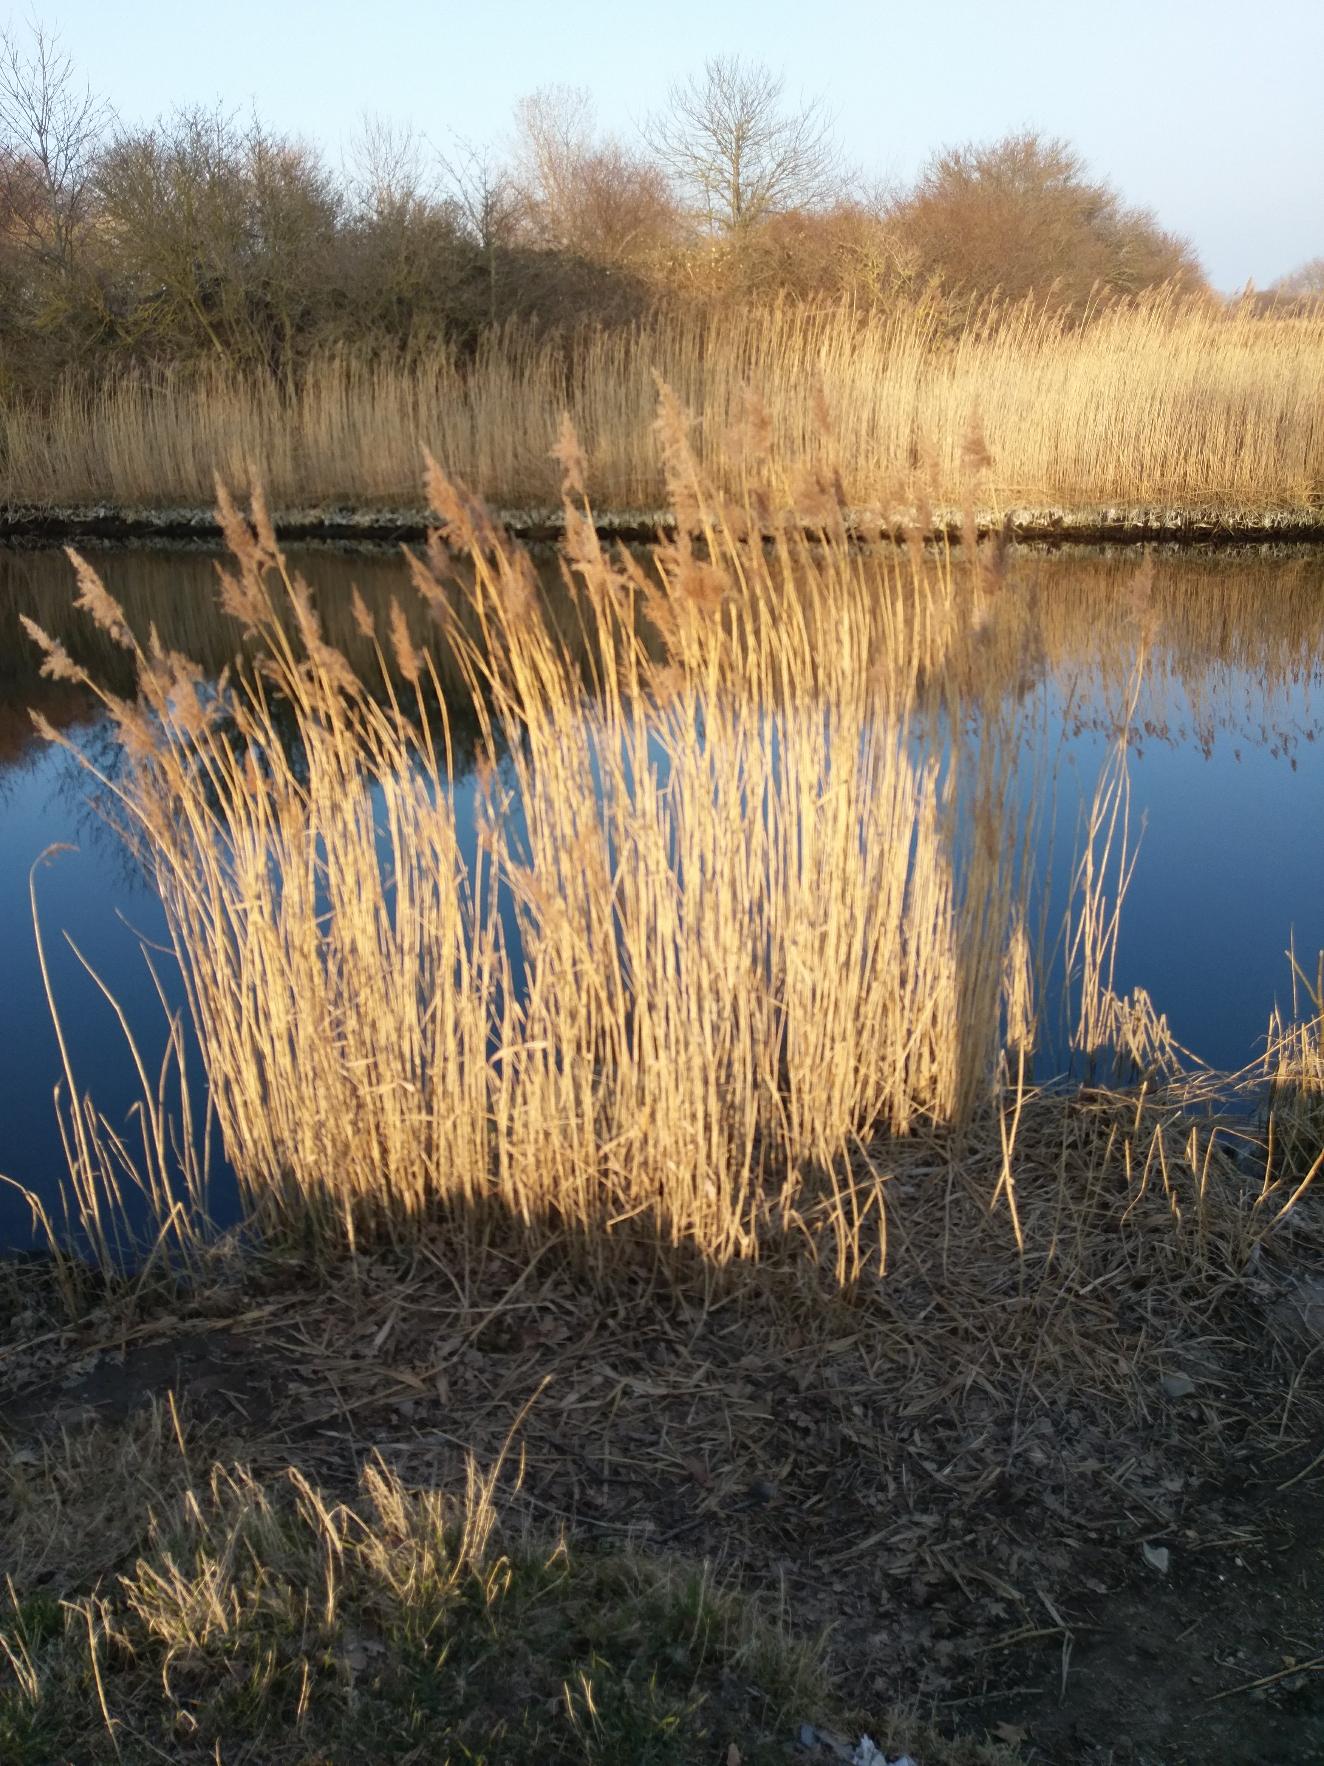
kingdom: Plantae
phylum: Tracheophyta
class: Liliopsida
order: Poales
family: Poaceae
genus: Phragmites
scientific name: Phragmites australis
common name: Tagrør
